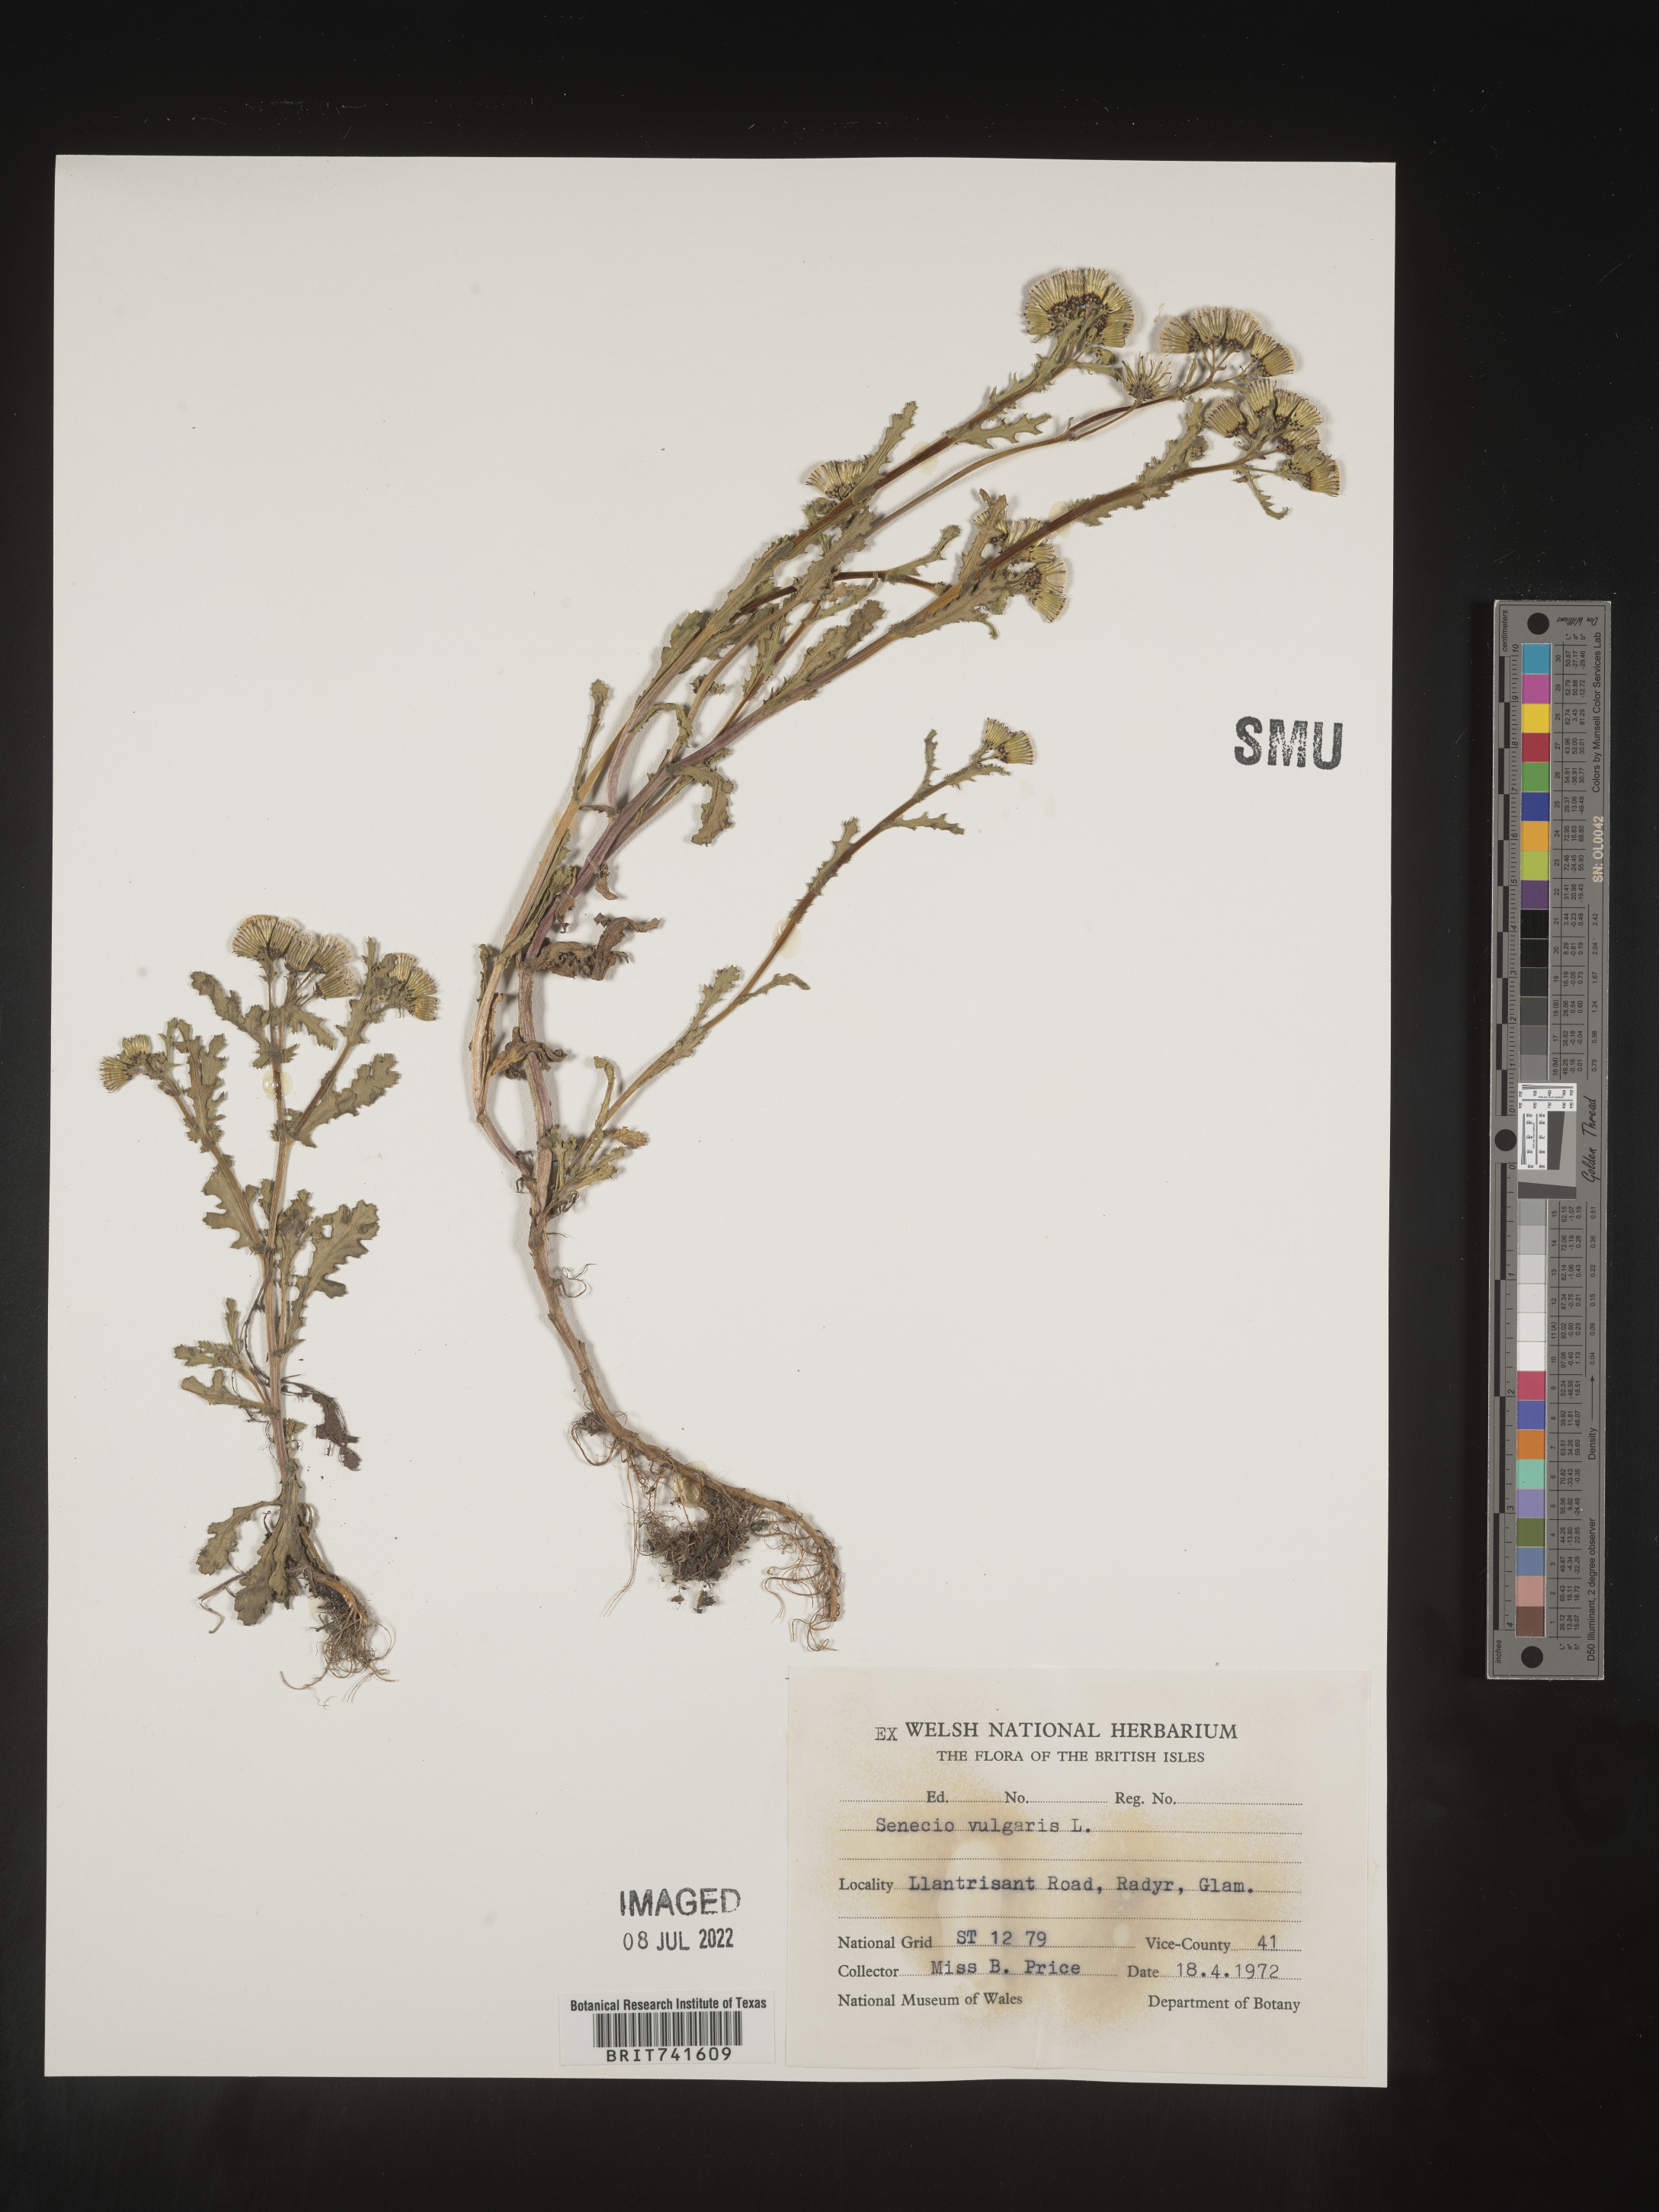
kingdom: Plantae
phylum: Tracheophyta
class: Magnoliopsida
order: Asterales
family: Asteraceae
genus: Senecio
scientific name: Senecio
